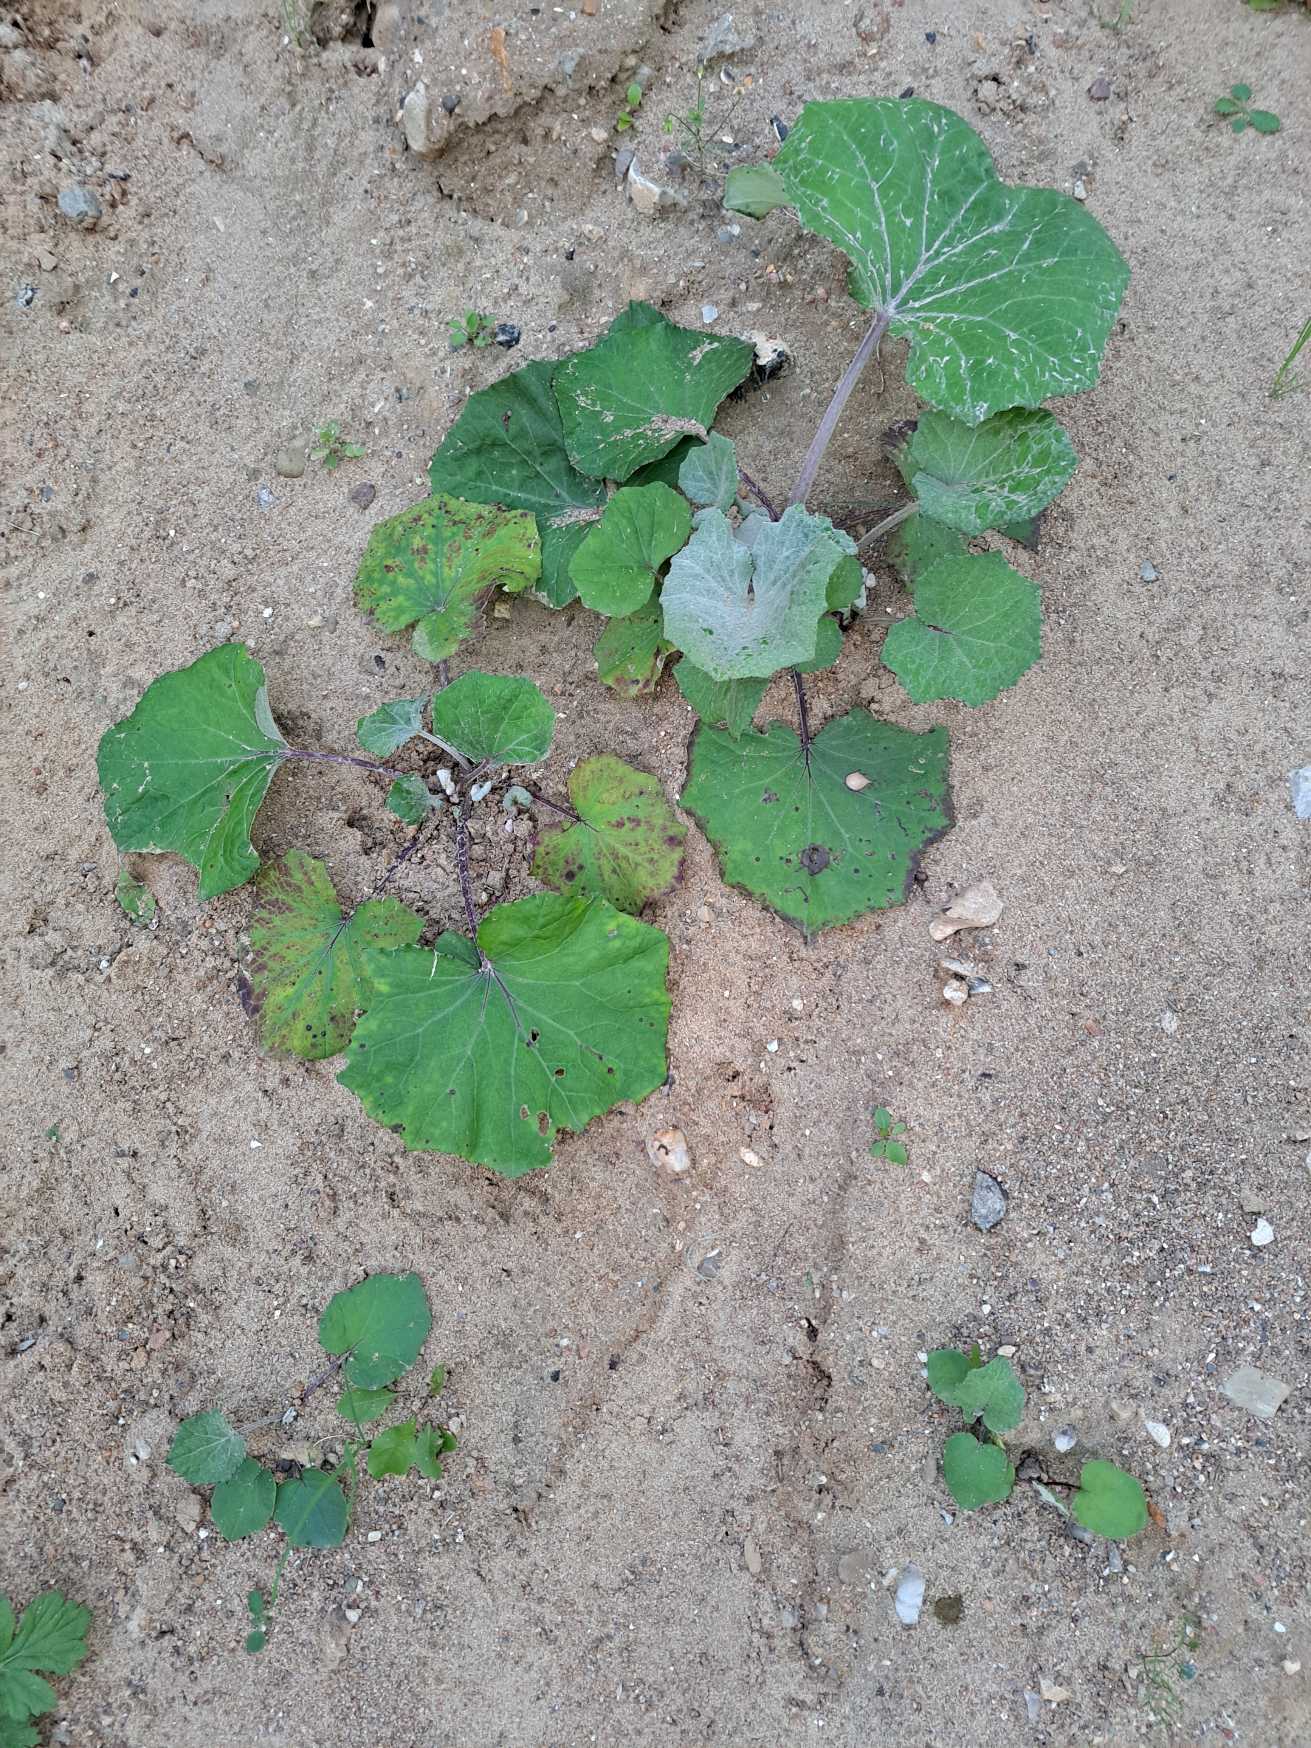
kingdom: Plantae
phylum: Tracheophyta
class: Magnoliopsida
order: Asterales
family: Asteraceae
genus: Tussilago
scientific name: Tussilago farfara
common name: Følfod
